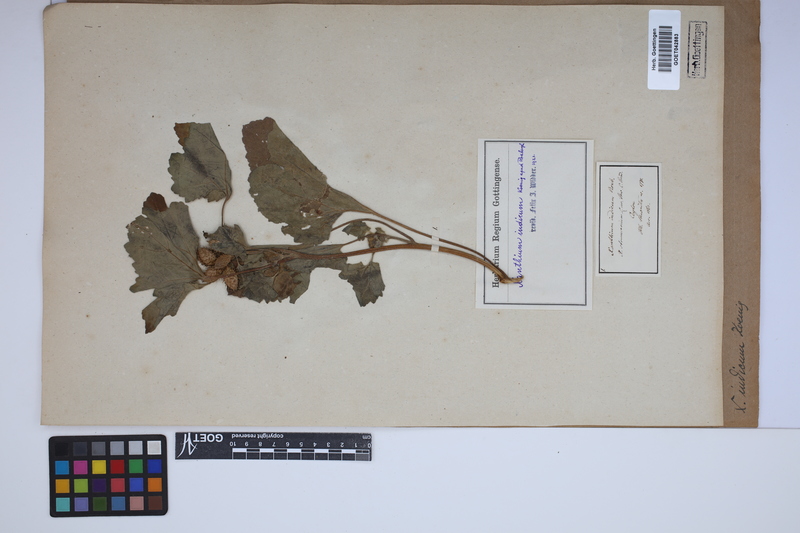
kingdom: Plantae
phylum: Tracheophyta
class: Magnoliopsida
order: Asterales
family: Asteraceae
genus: Xanthium
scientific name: Xanthium strumarium
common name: Rough cocklebur
